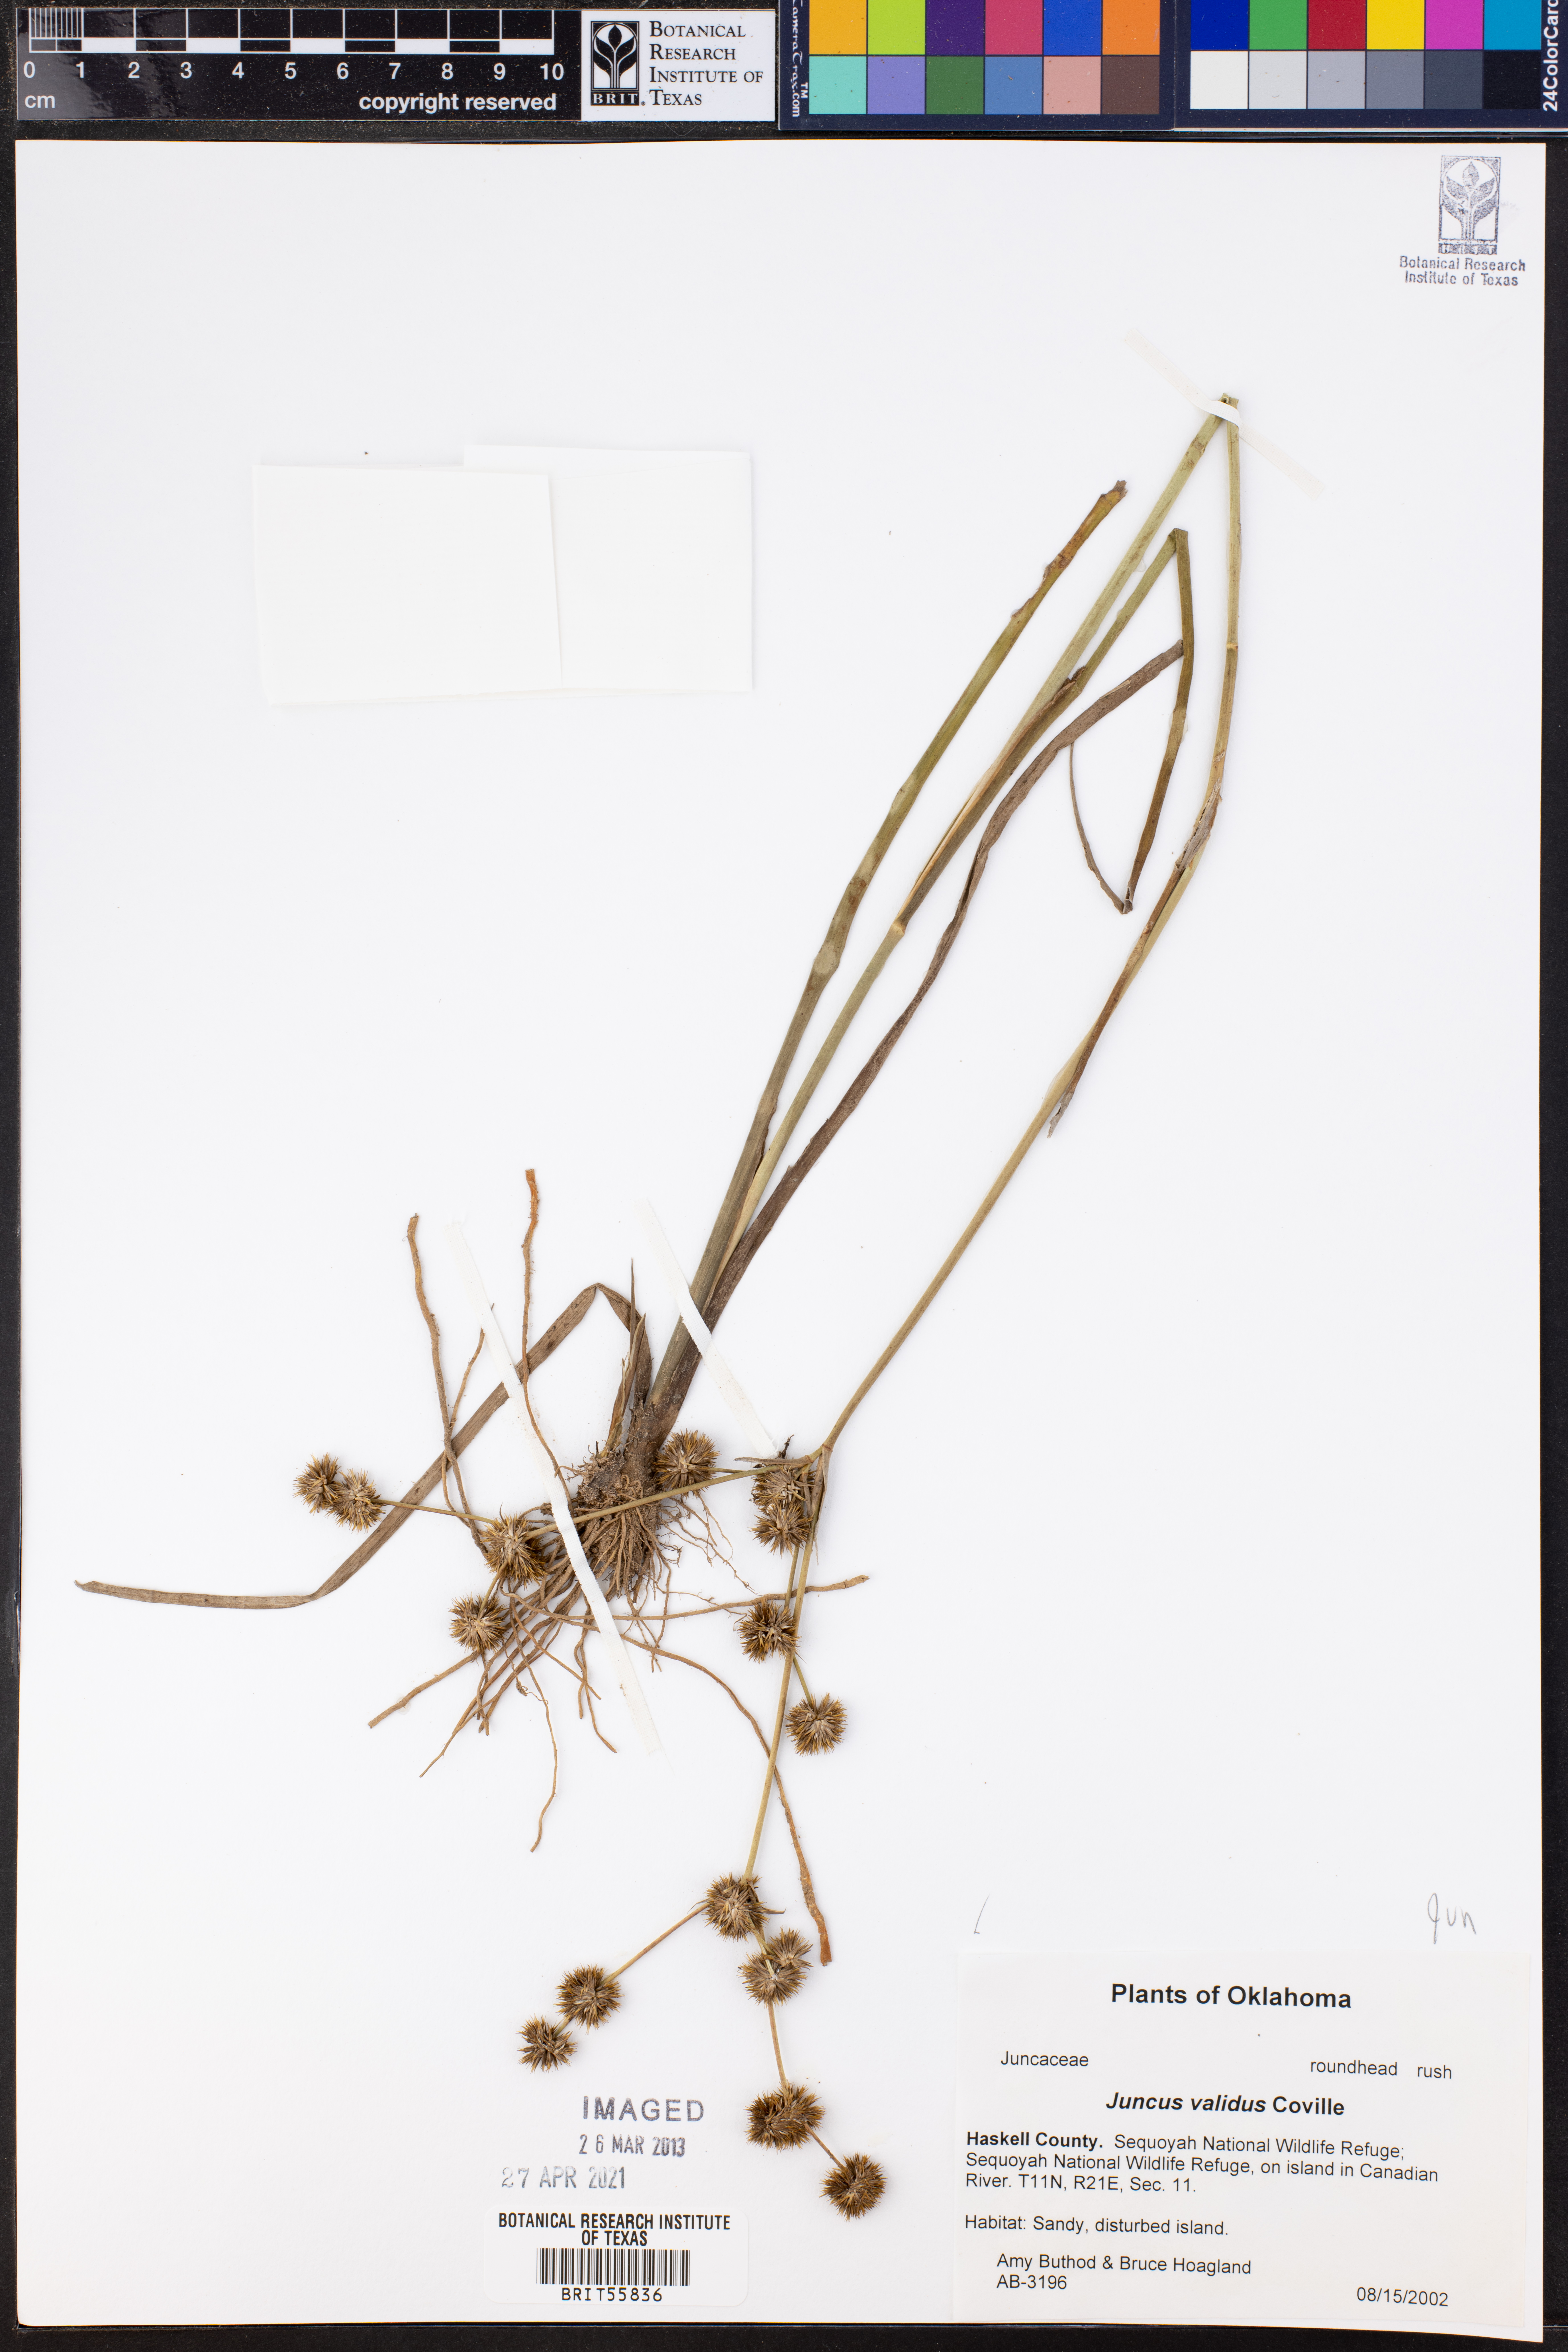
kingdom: Plantae
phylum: Tracheophyta
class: Liliopsida
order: Poales
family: Juncaceae
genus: Juncus
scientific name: Juncus validus
